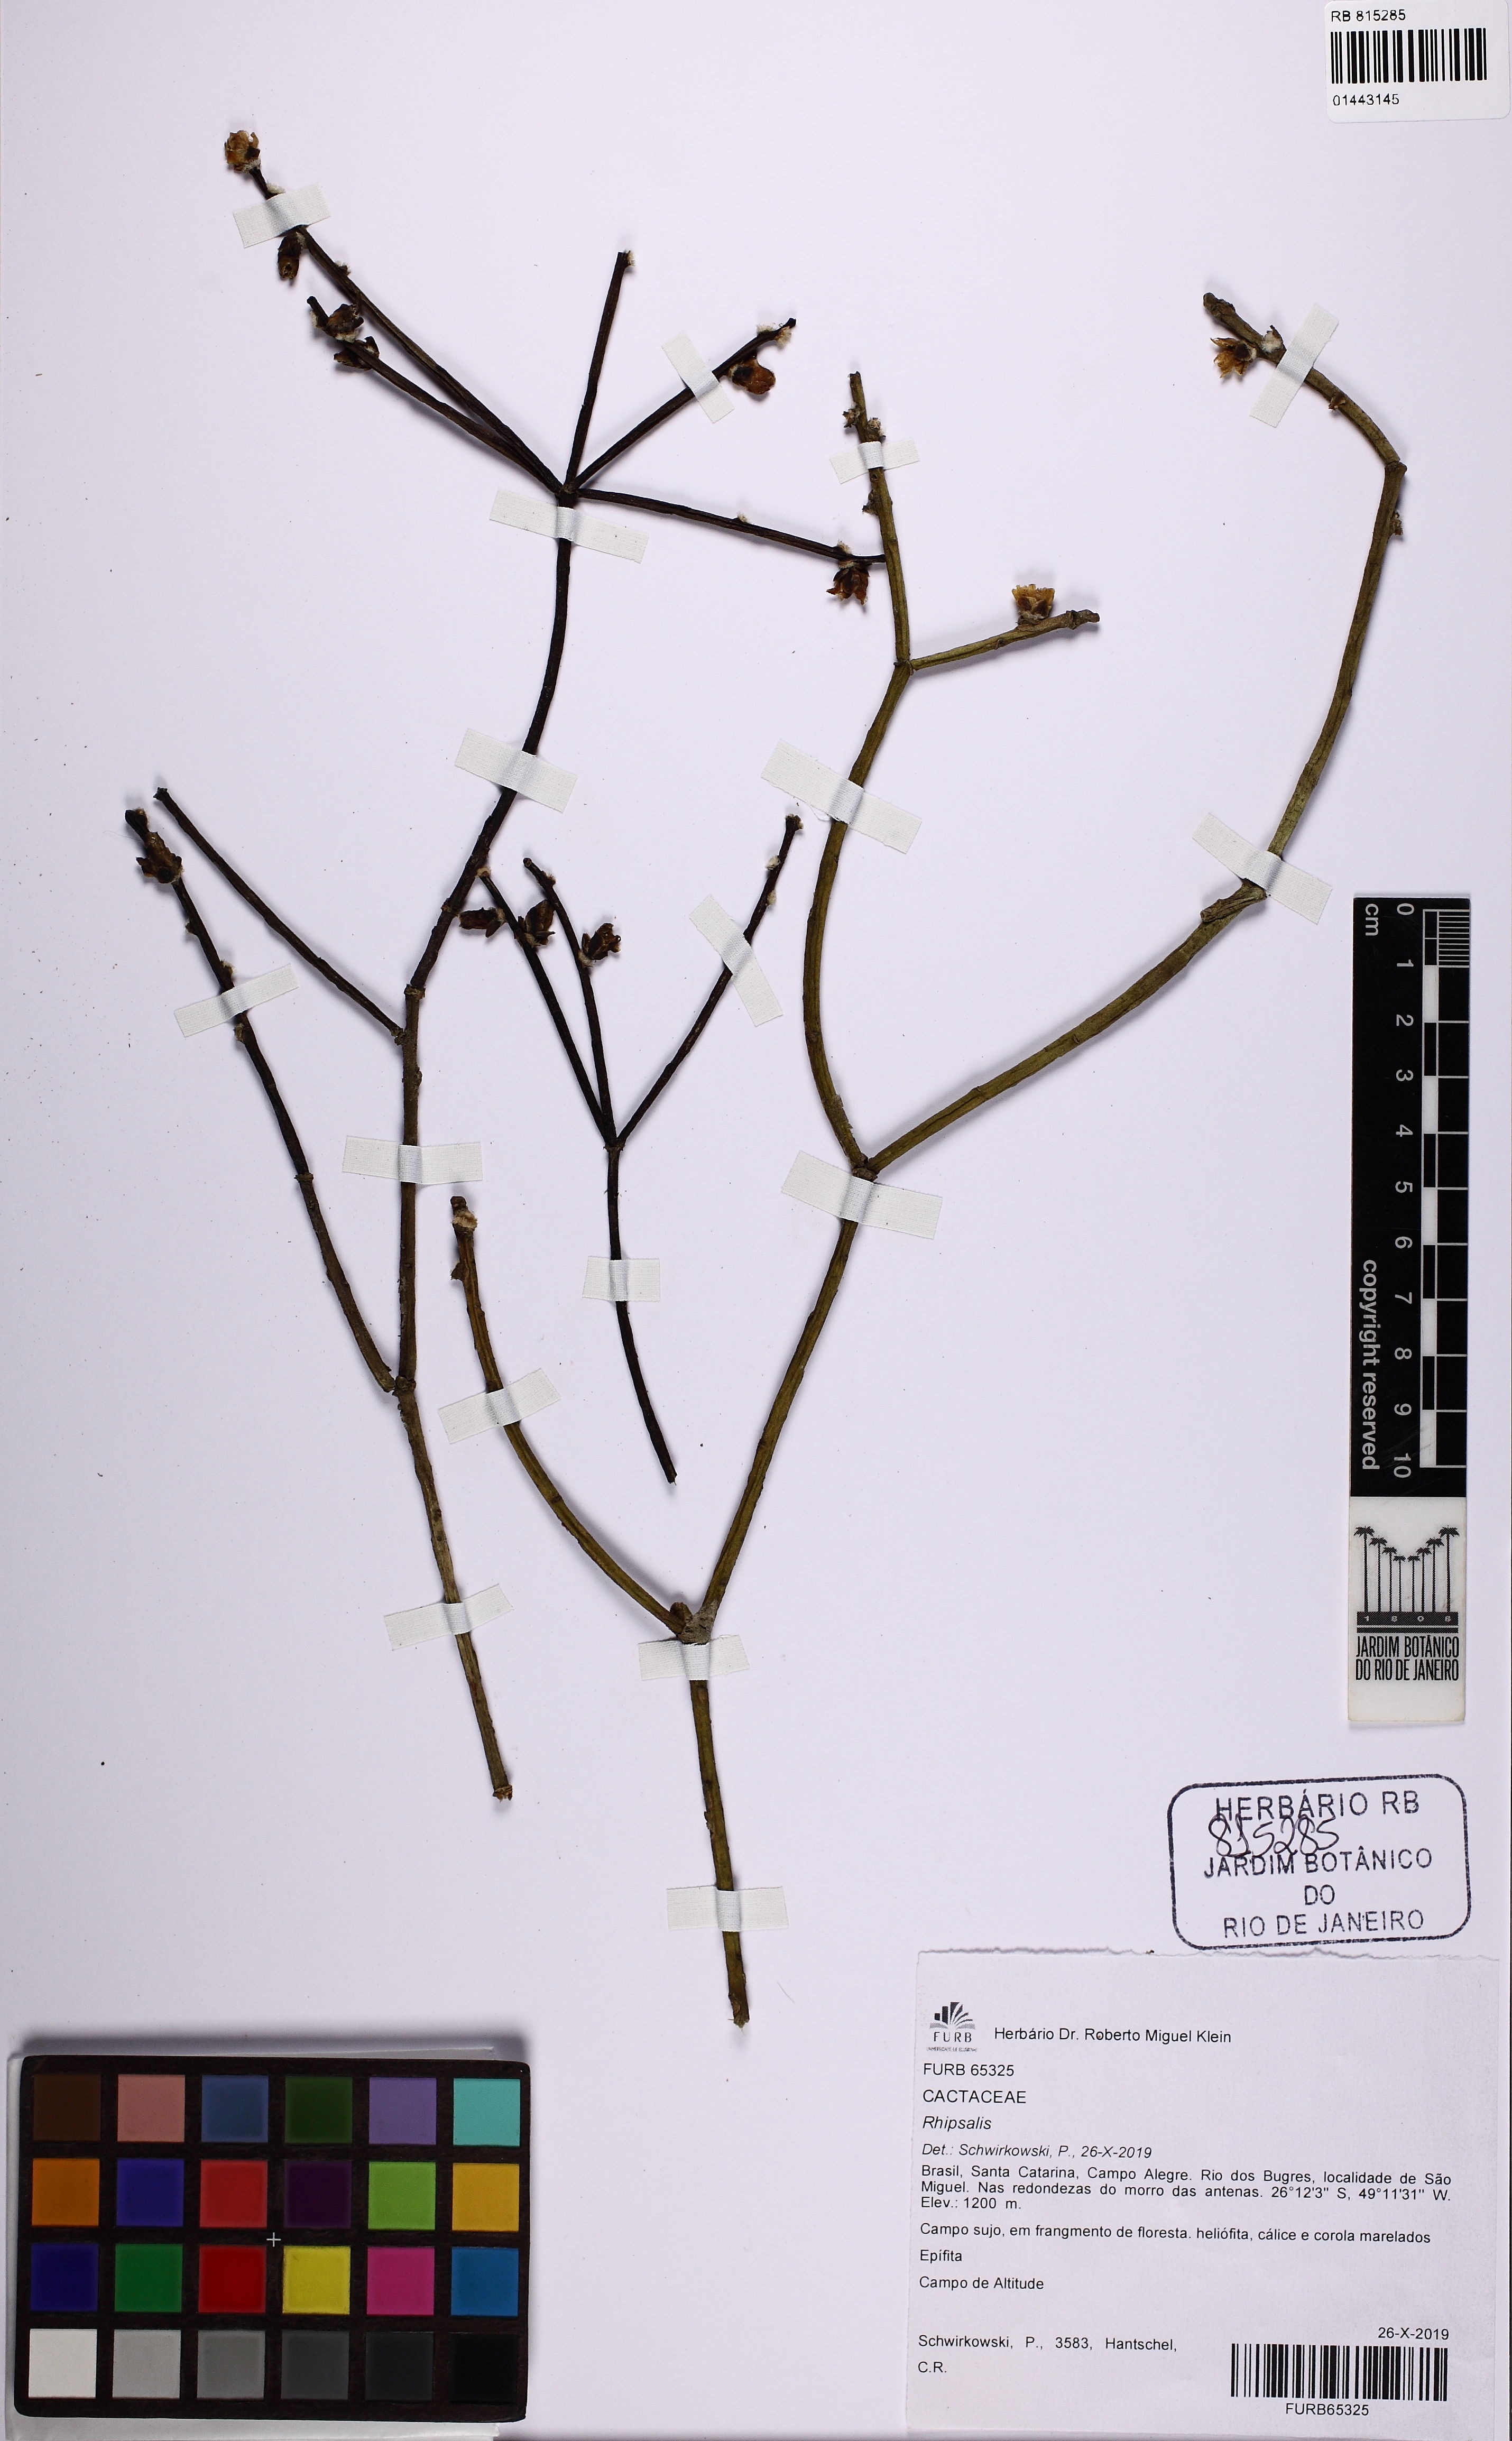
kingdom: Plantae
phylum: Tracheophyta
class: Magnoliopsida
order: Caryophyllales
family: Cactaceae
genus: Rhipsalis
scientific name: Rhipsalis floccosa
